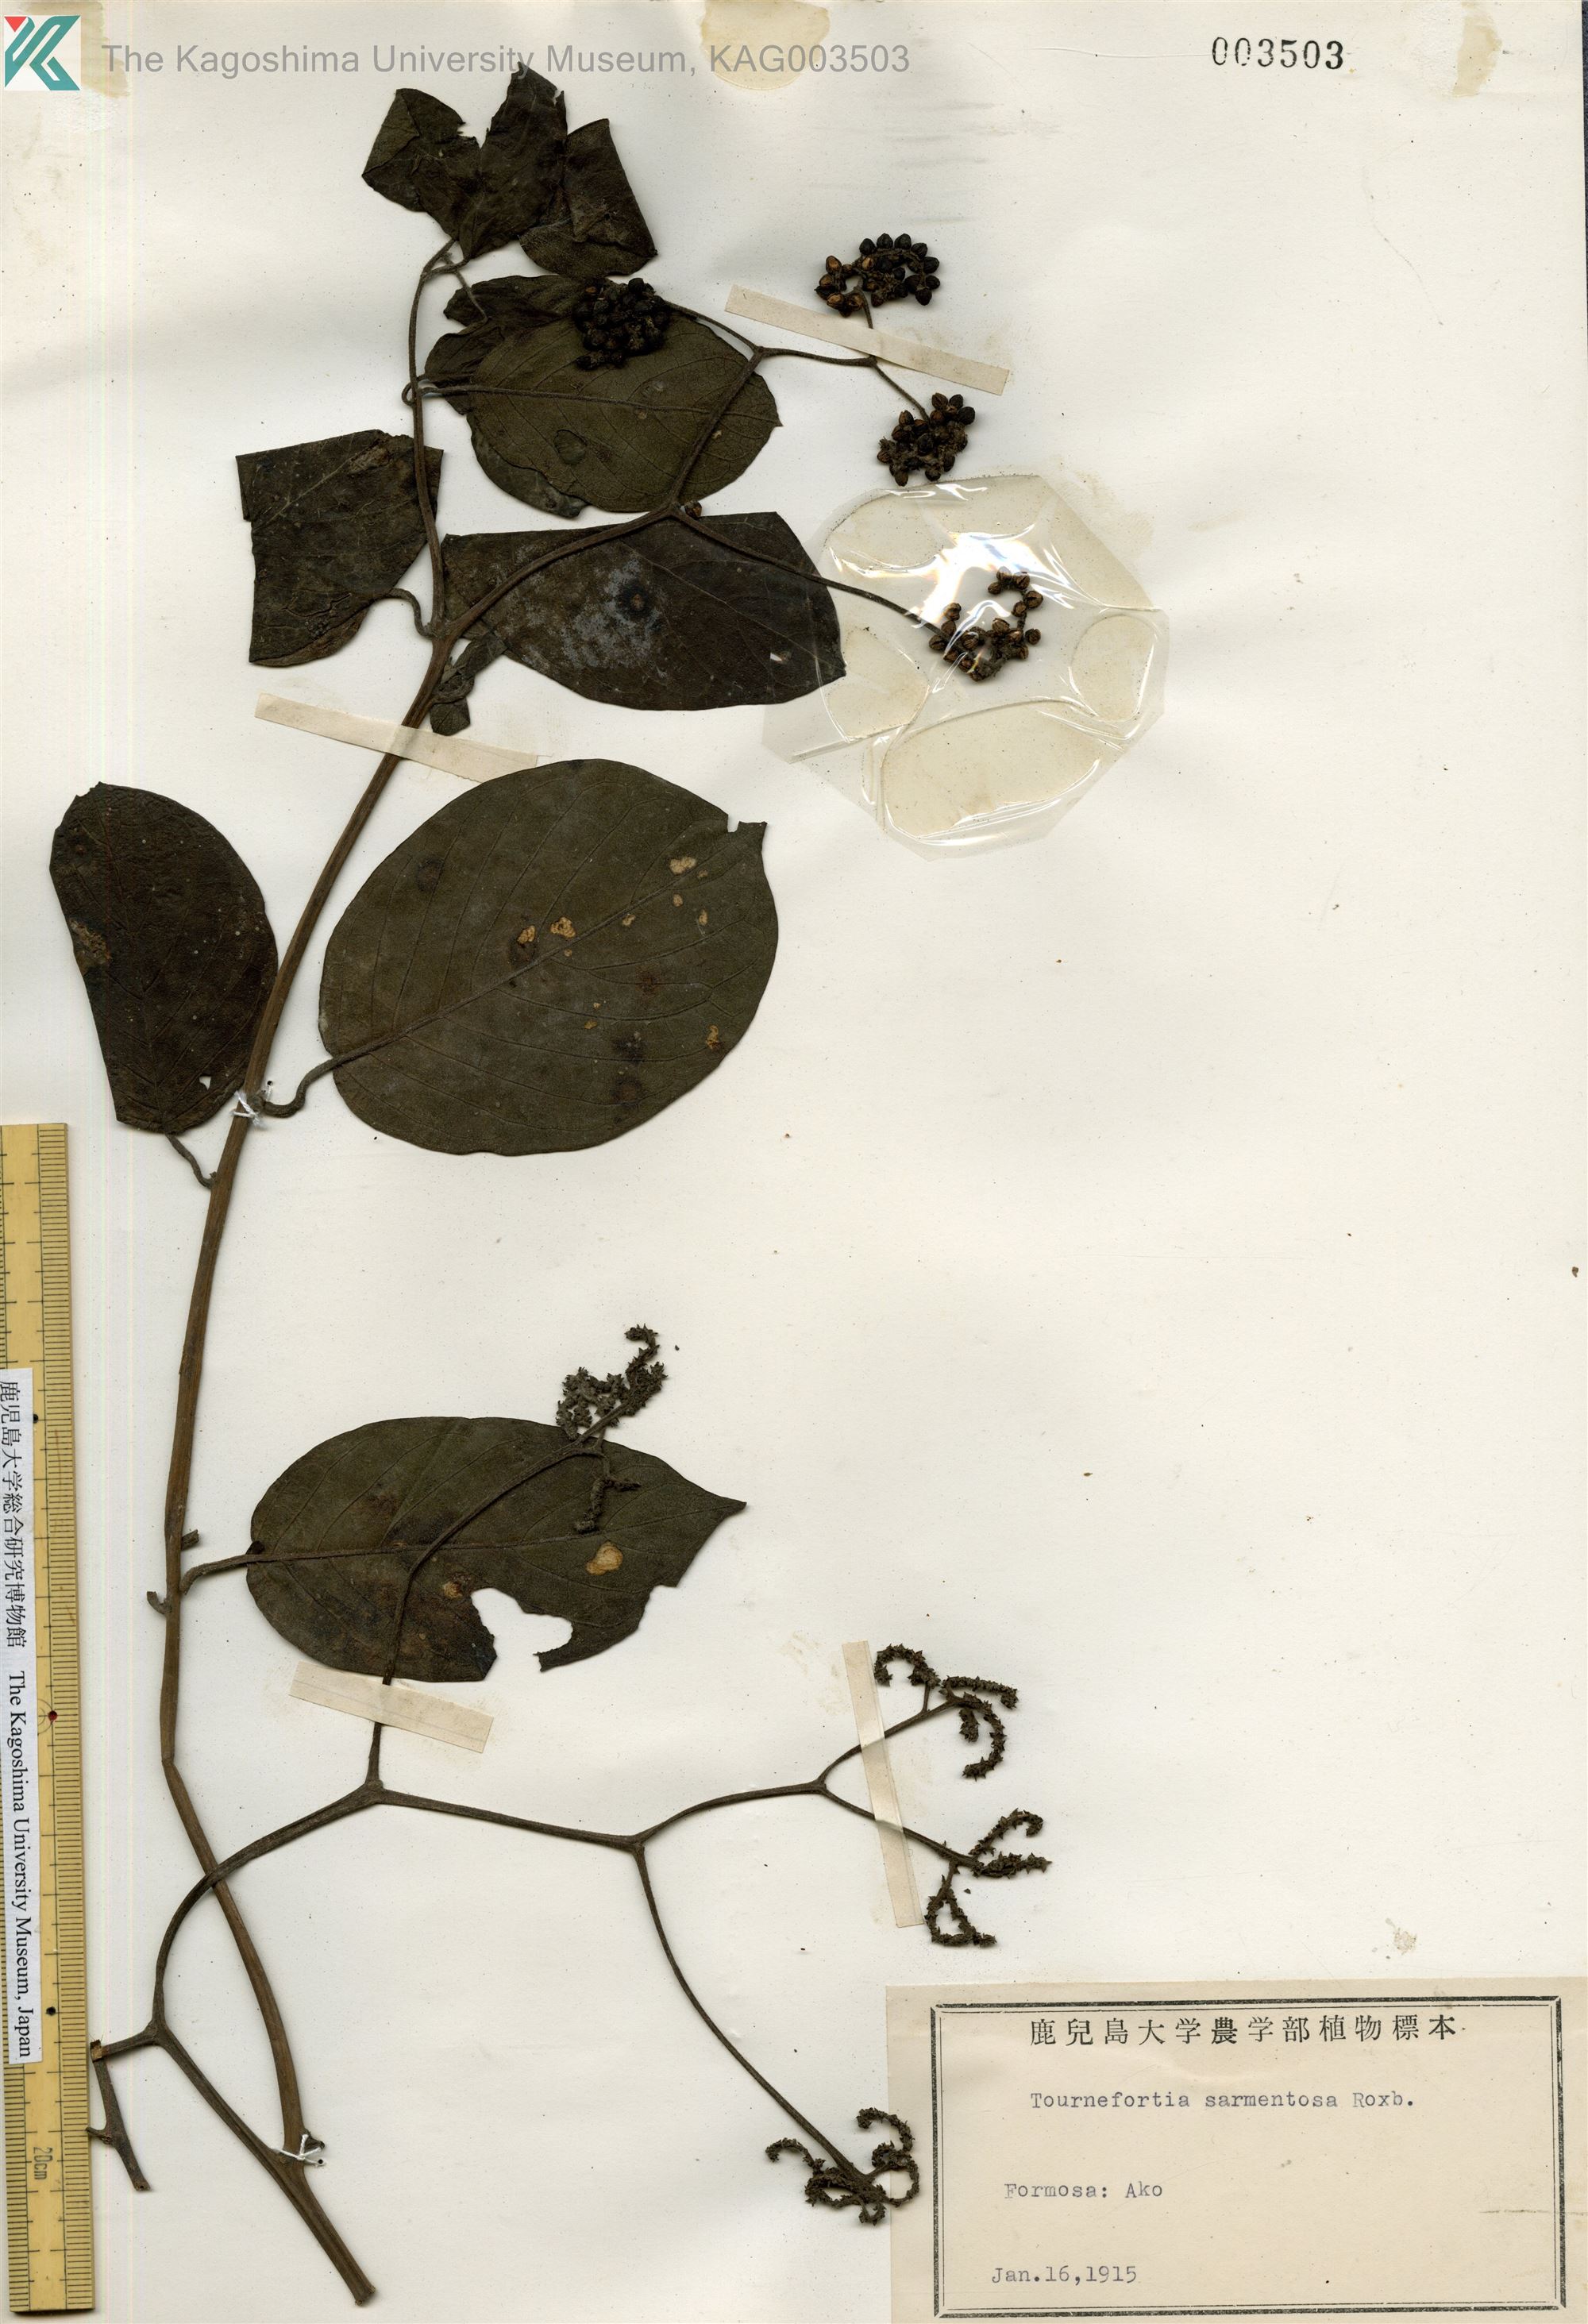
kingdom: Plantae
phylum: Tracheophyta
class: Magnoliopsida
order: Boraginales
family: Heliotropiaceae
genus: Heliotropium
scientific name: Heliotropium sarmentosum
